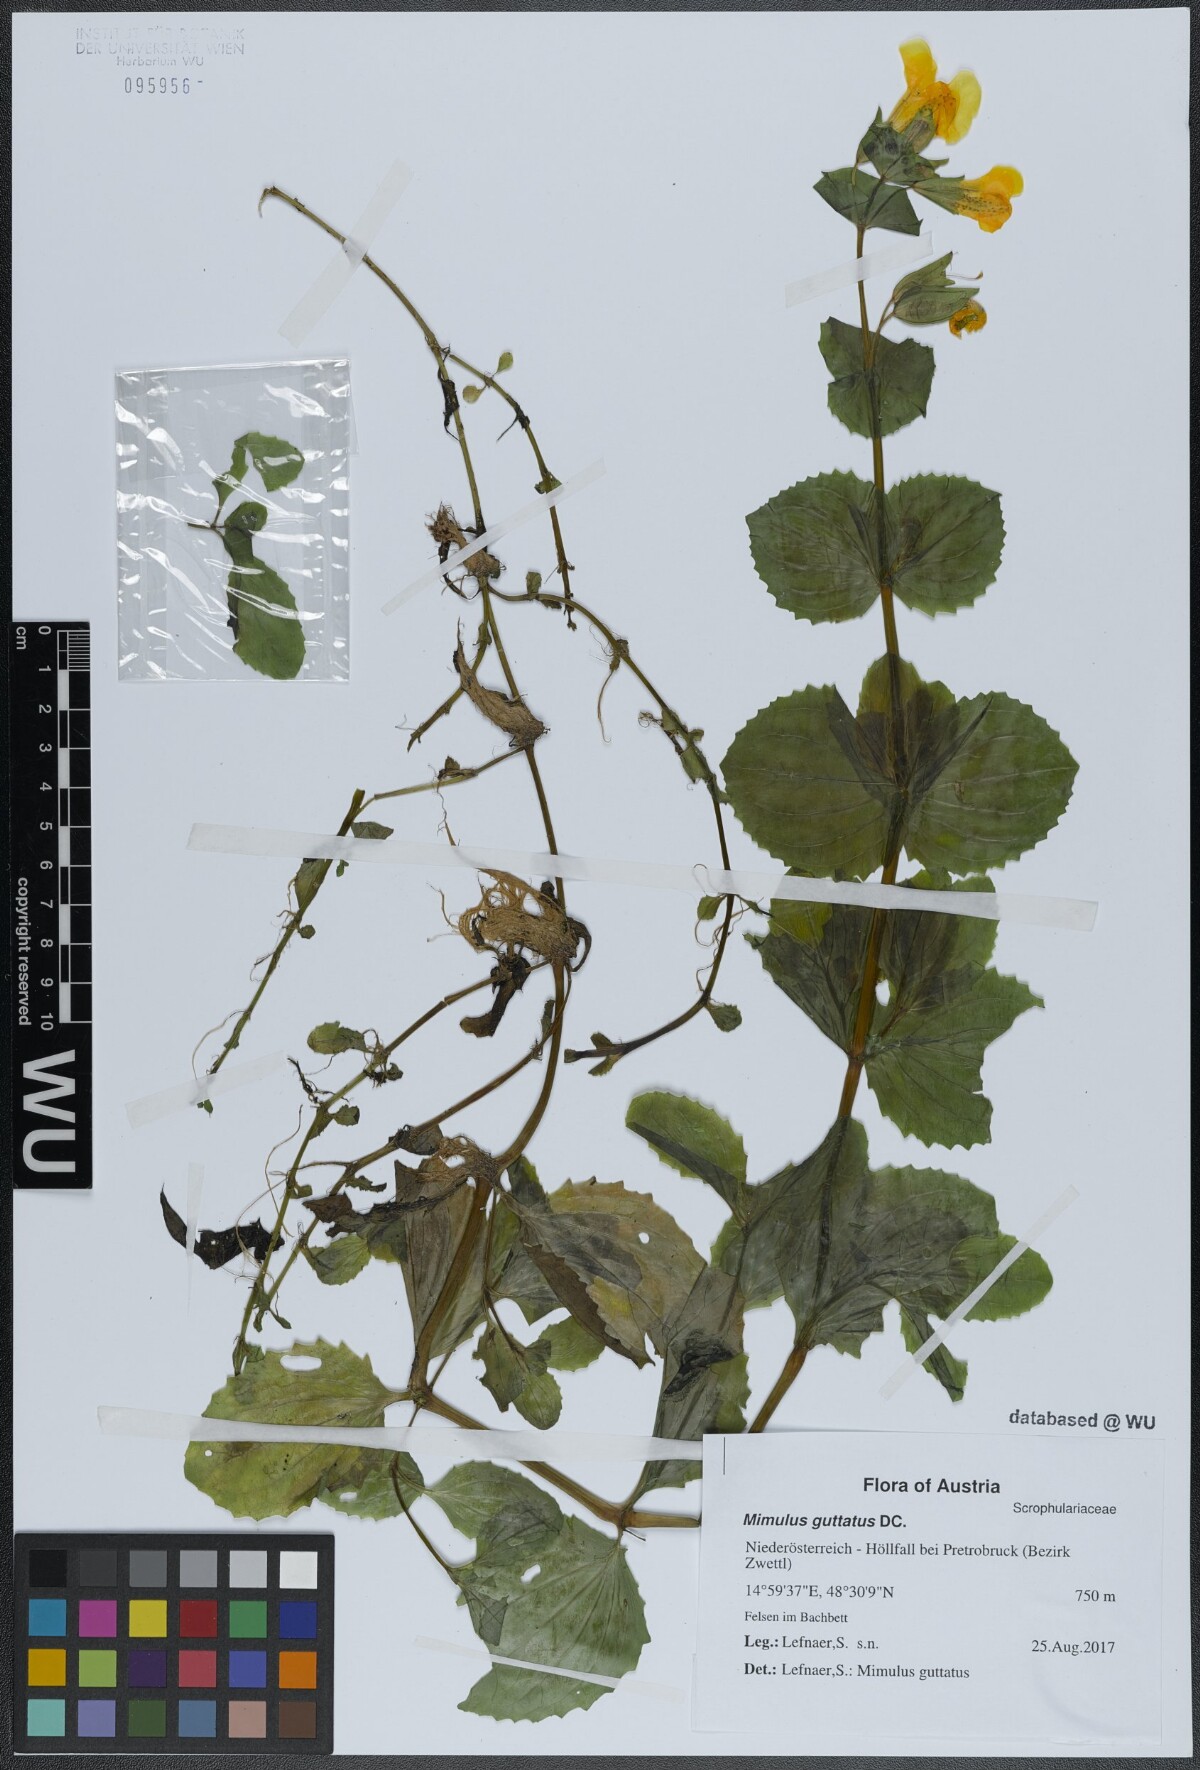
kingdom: Plantae
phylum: Tracheophyta
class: Magnoliopsida
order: Lamiales
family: Phrymaceae
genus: Erythranthe
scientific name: Erythranthe guttata
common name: Monkeyflower
